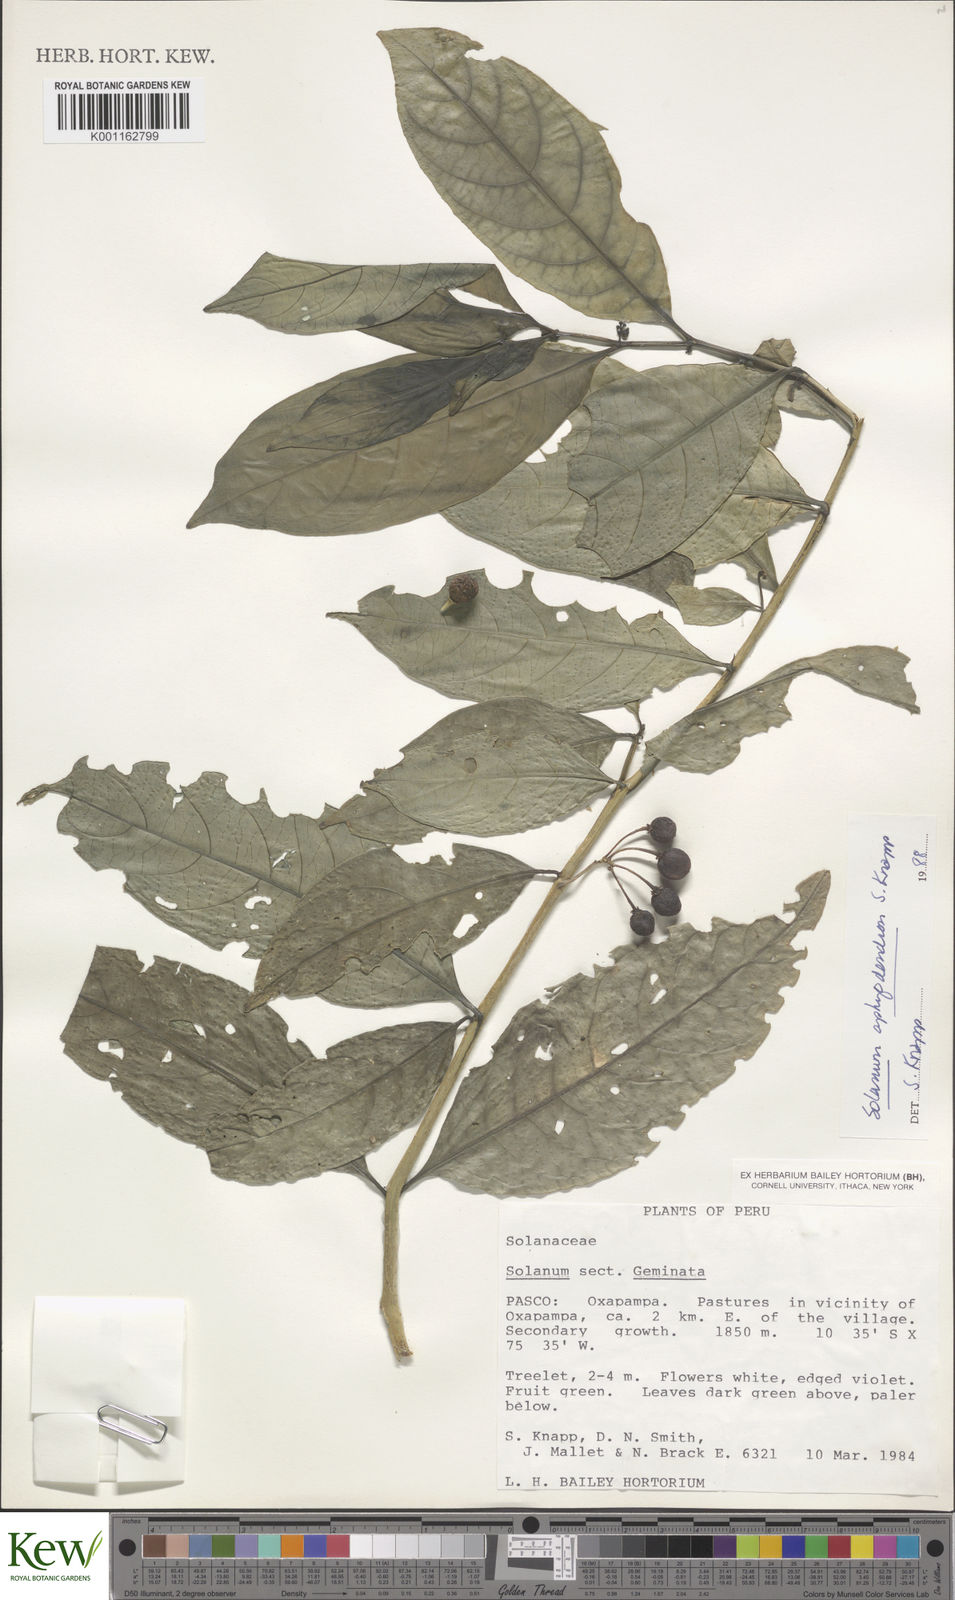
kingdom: Plantae
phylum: Tracheophyta
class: Magnoliopsida
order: Solanales
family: Solanaceae
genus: Solanum
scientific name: Solanum aphyodendron
